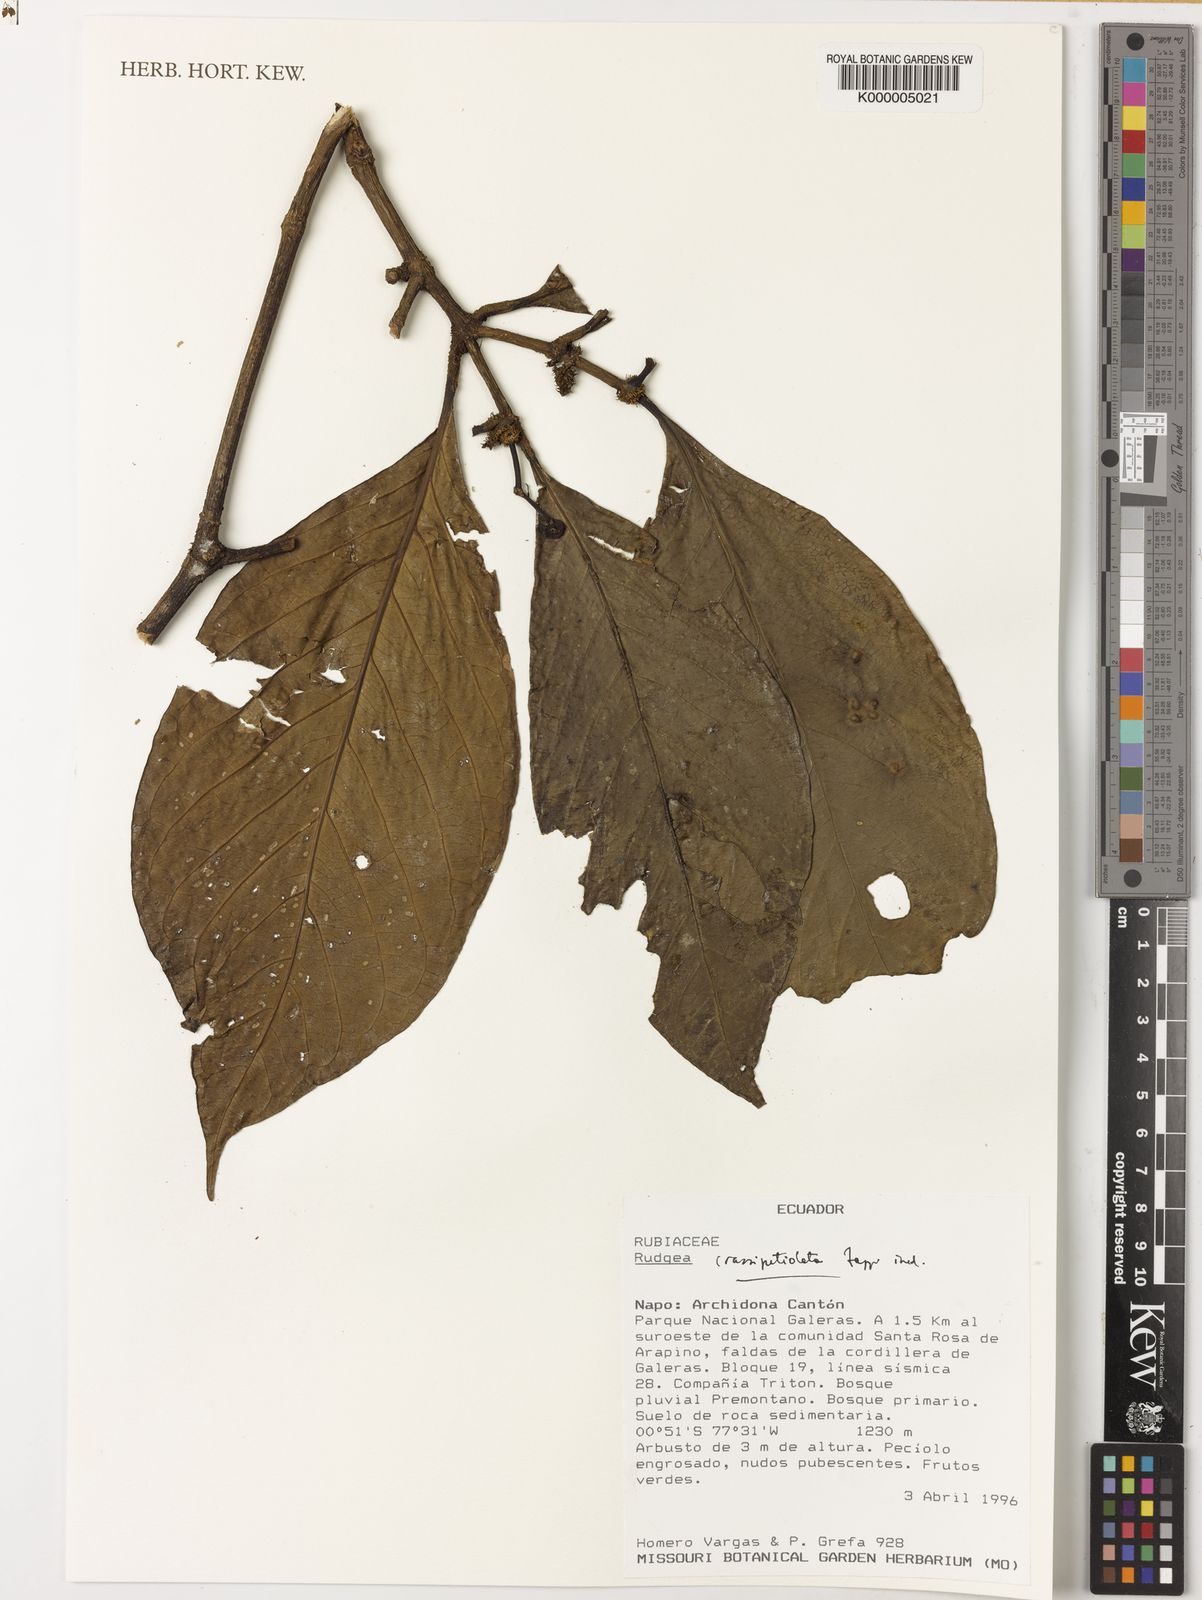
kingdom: Plantae
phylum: Tracheophyta
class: Magnoliopsida
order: Gentianales
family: Rubiaceae
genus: Rudgea
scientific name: Rudgea crassipetiolata
